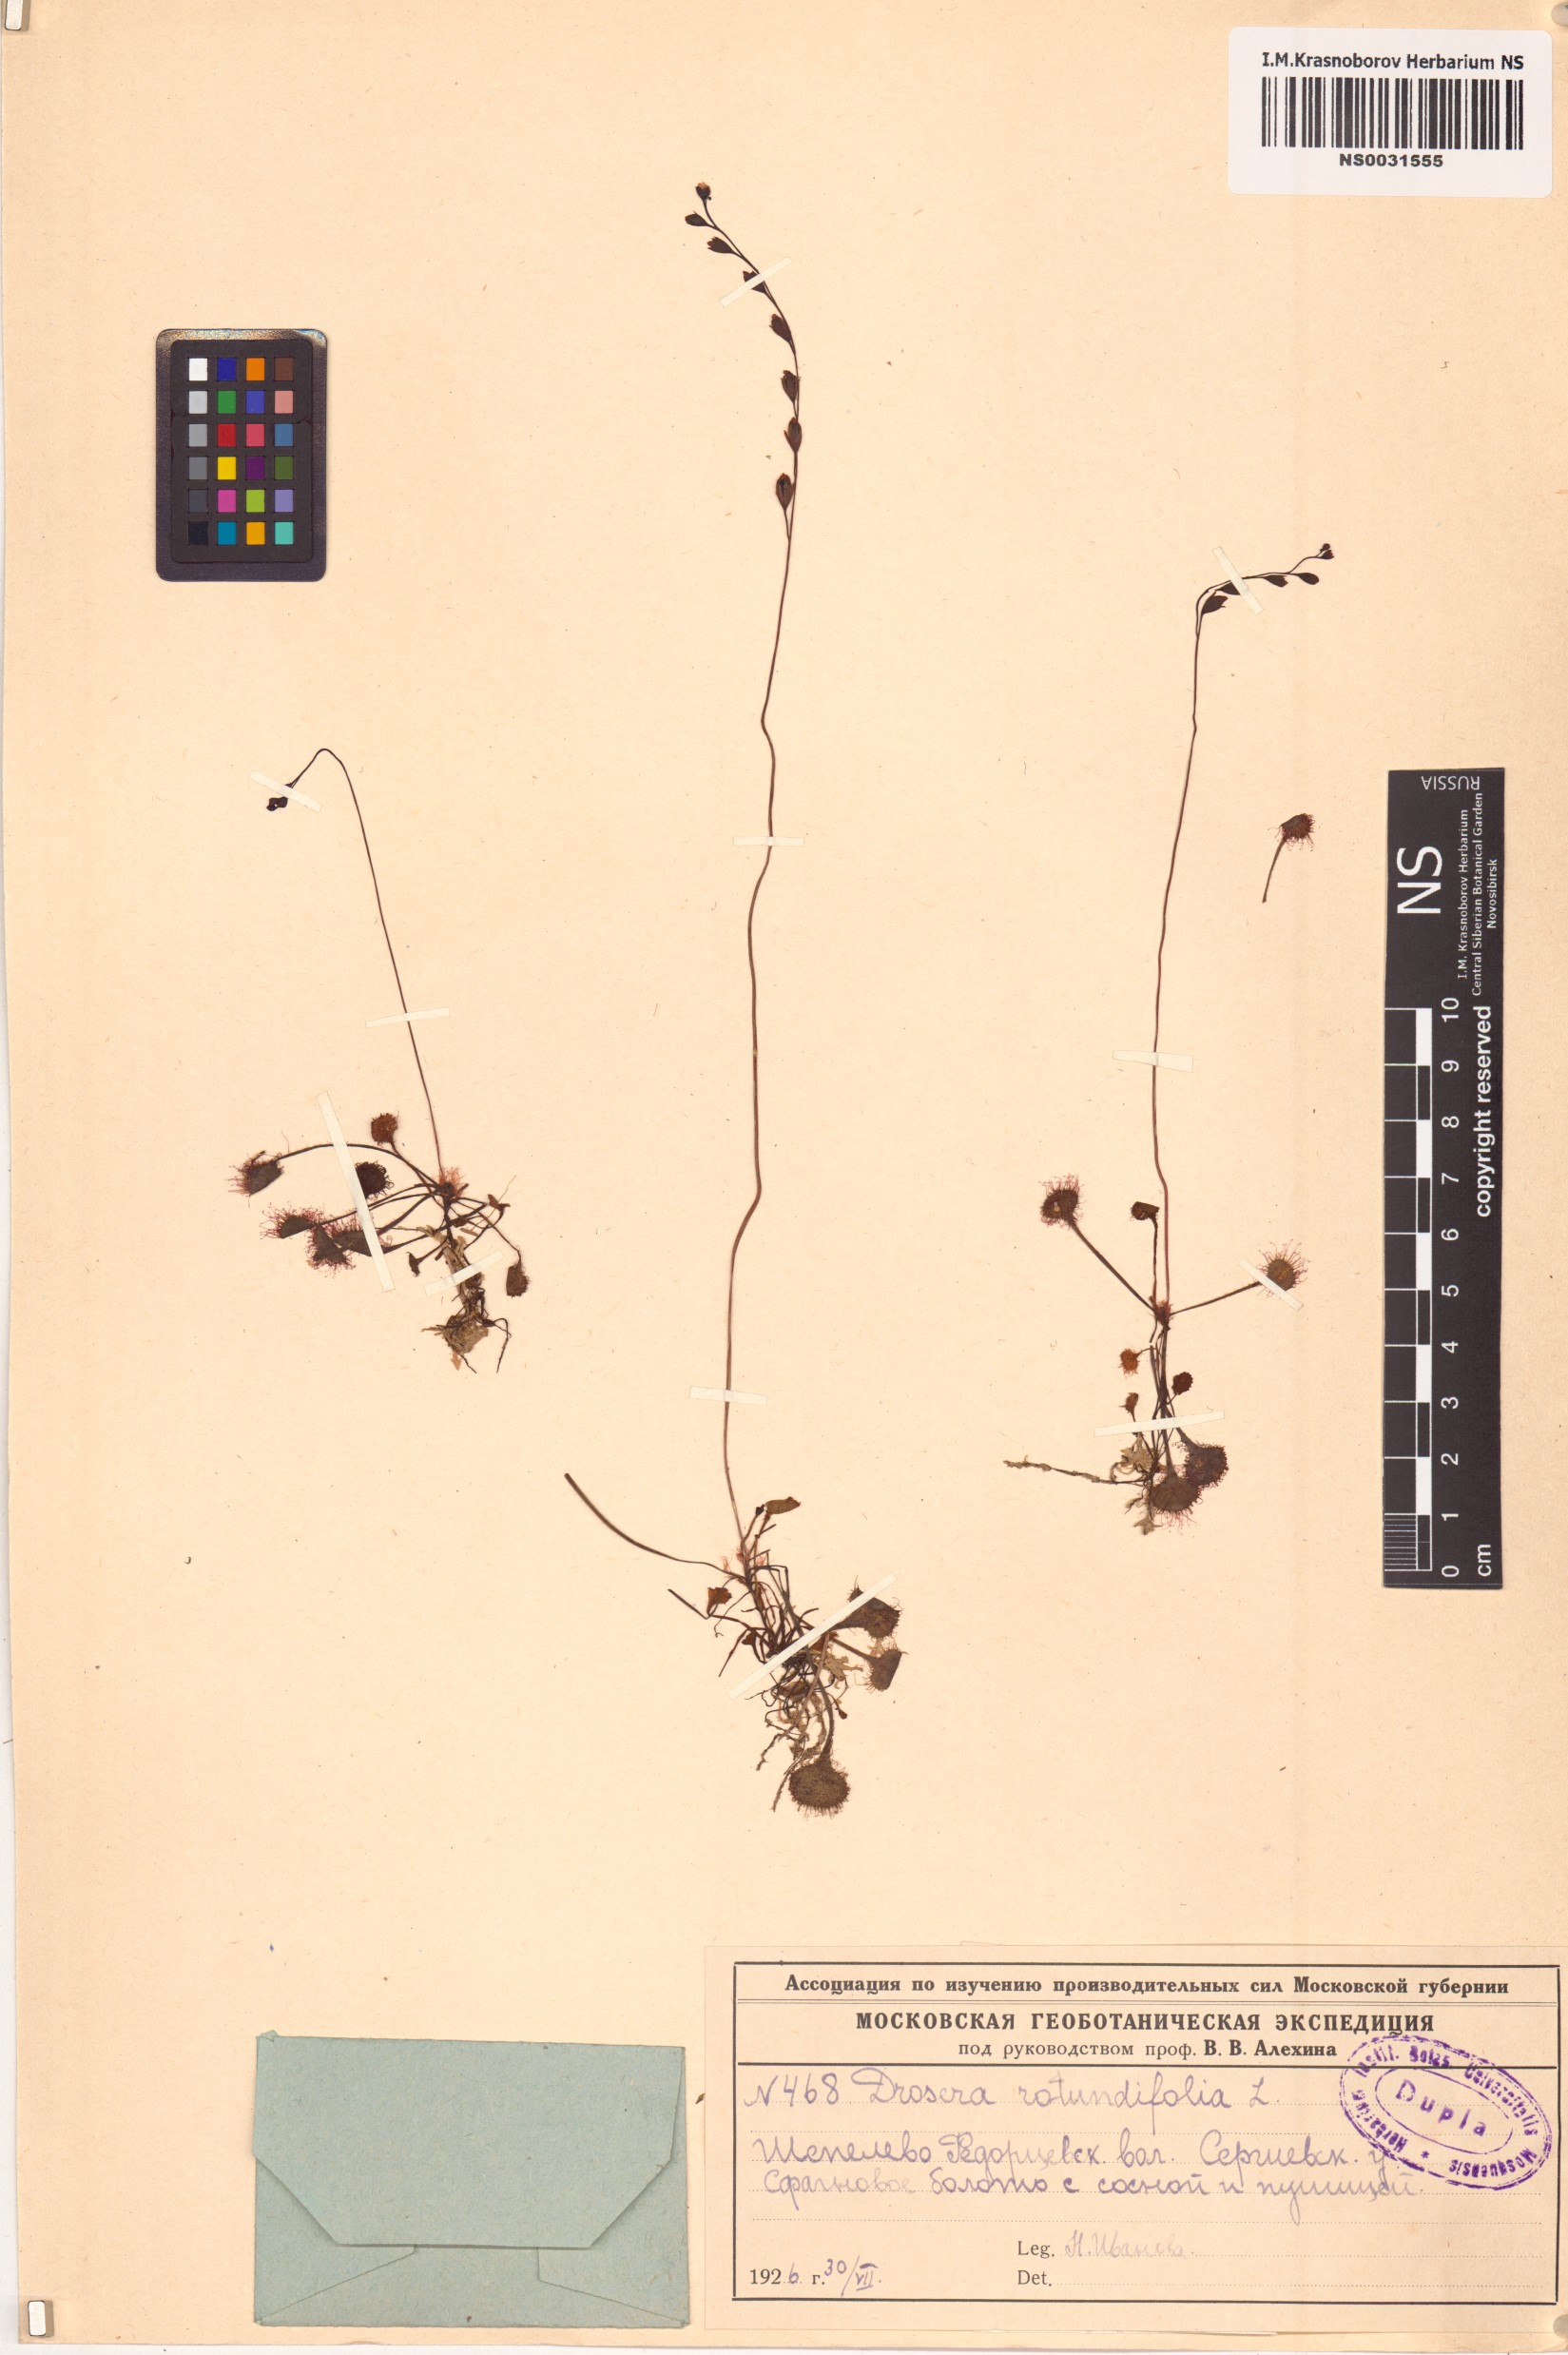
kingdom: Plantae
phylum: Tracheophyta
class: Magnoliopsida
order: Caryophyllales
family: Droseraceae
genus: Drosera
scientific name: Drosera rotundifolia
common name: Round-leaved sundew
